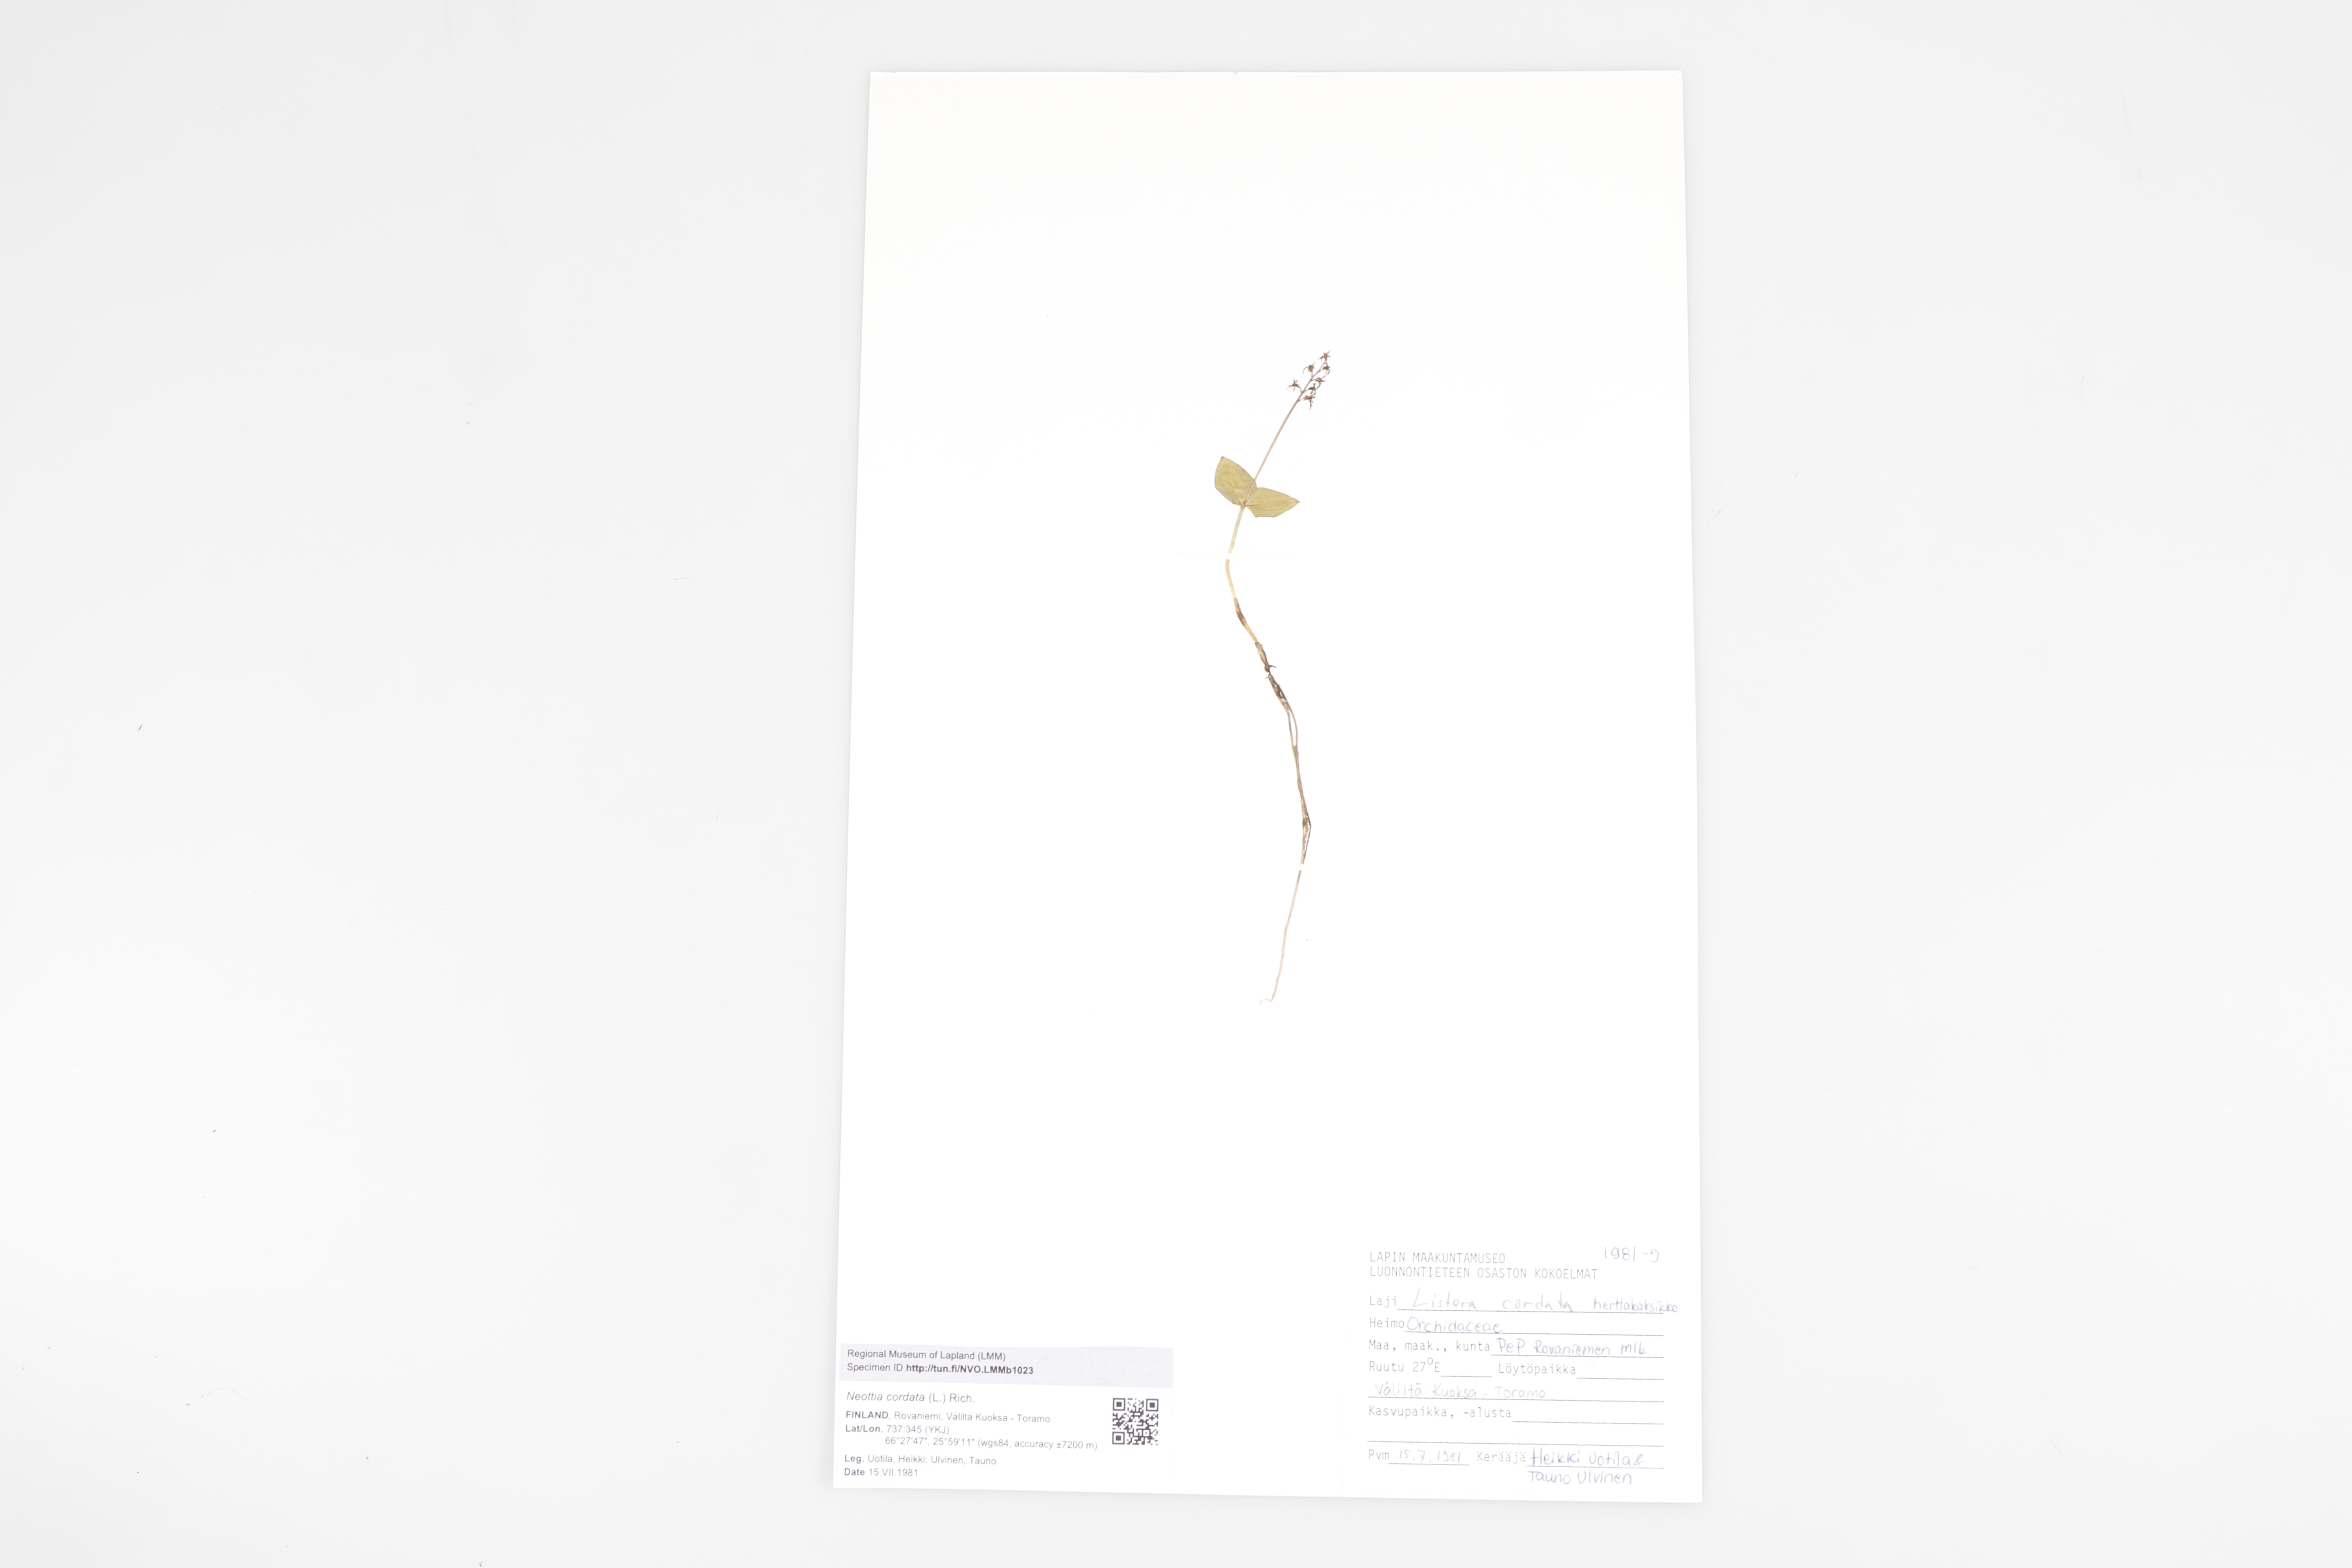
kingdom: Plantae
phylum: Tracheophyta
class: Liliopsida
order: Asparagales
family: Orchidaceae
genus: Neottia
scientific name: Neottia cordata
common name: Lesser twayblade
